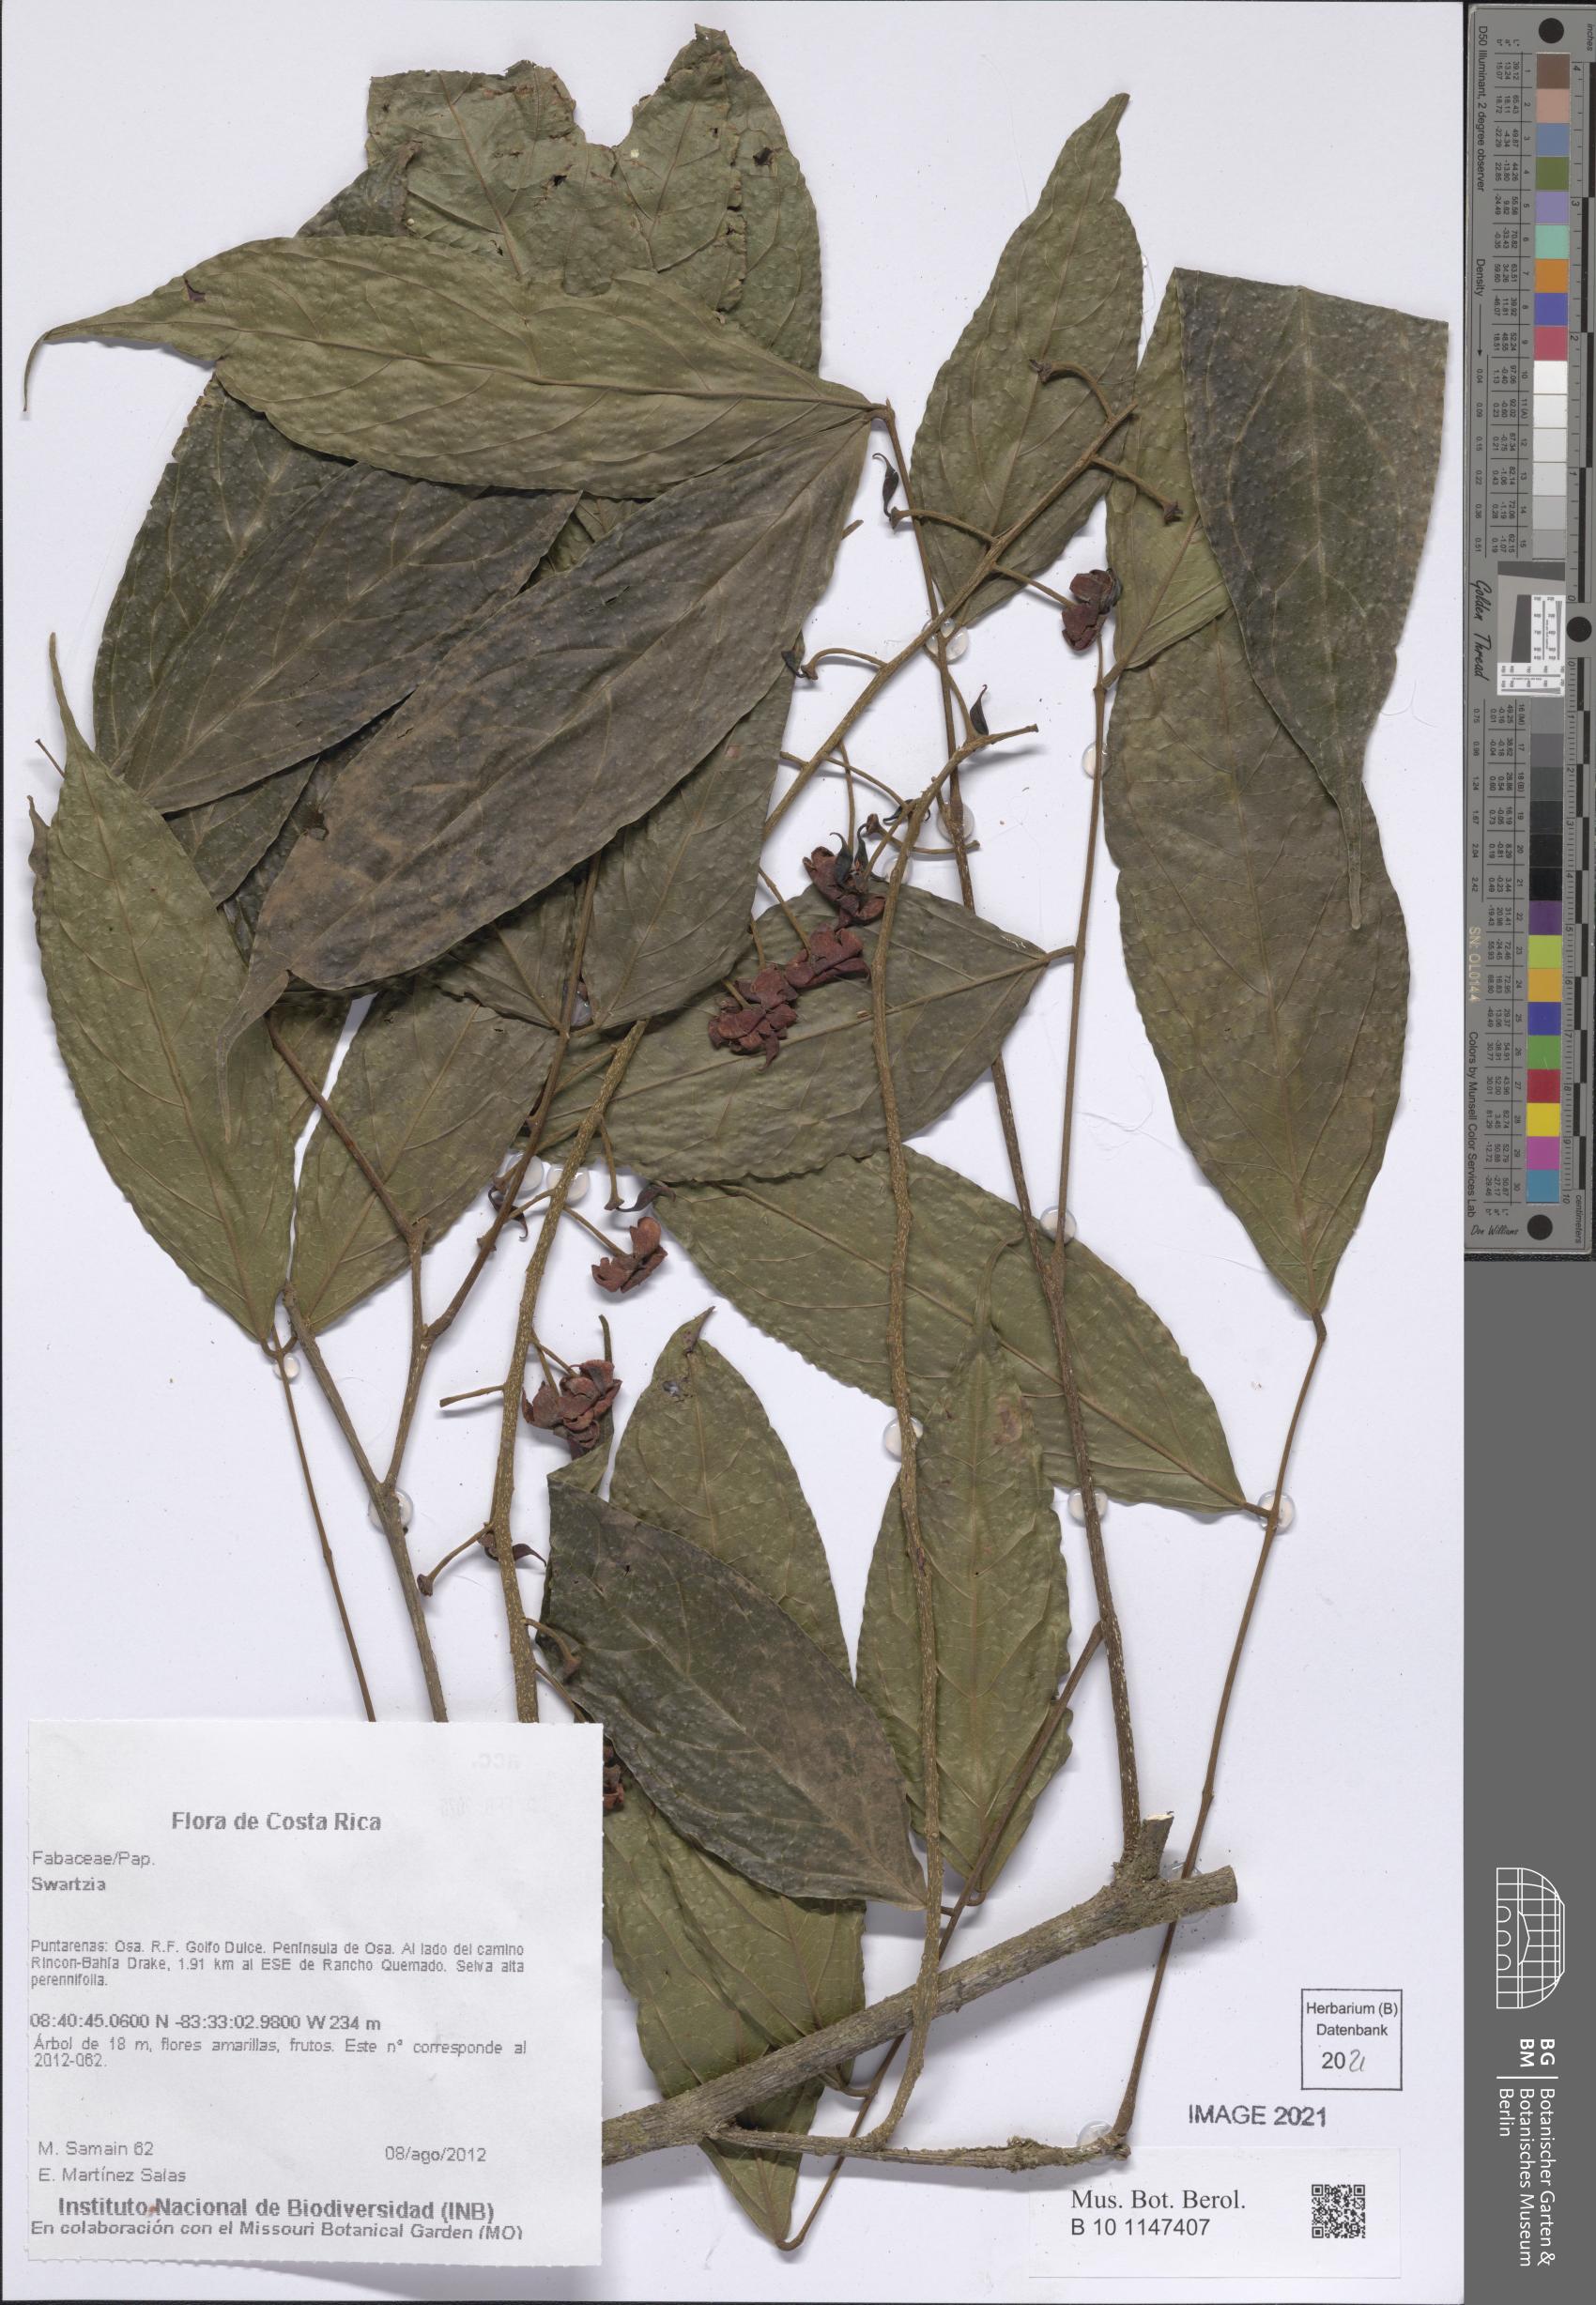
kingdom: Plantae
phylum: Tracheophyta
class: Magnoliopsida
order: Fabales
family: Fabaceae
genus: Swartzia
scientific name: Swartzia
